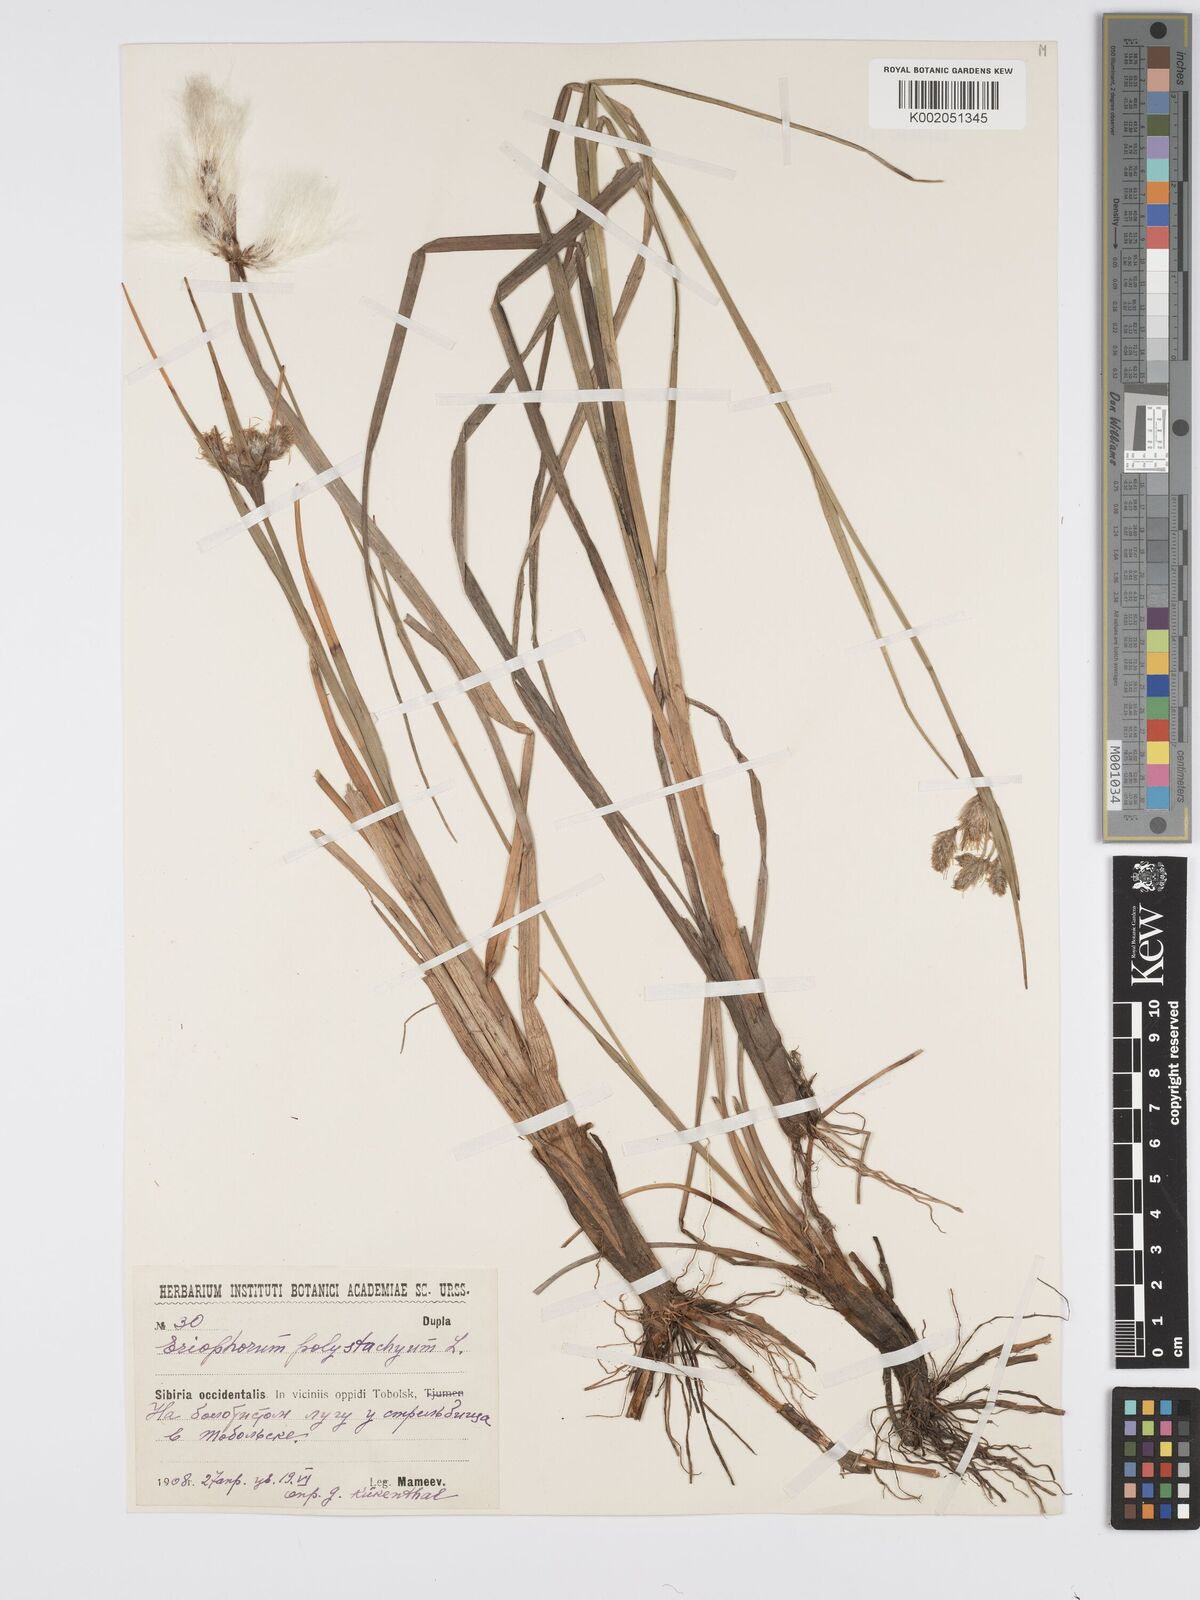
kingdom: Plantae
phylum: Tracheophyta
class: Liliopsida
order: Poales
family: Cyperaceae
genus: Eriophorum
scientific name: Eriophorum angustifolium
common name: Common cottongrass
